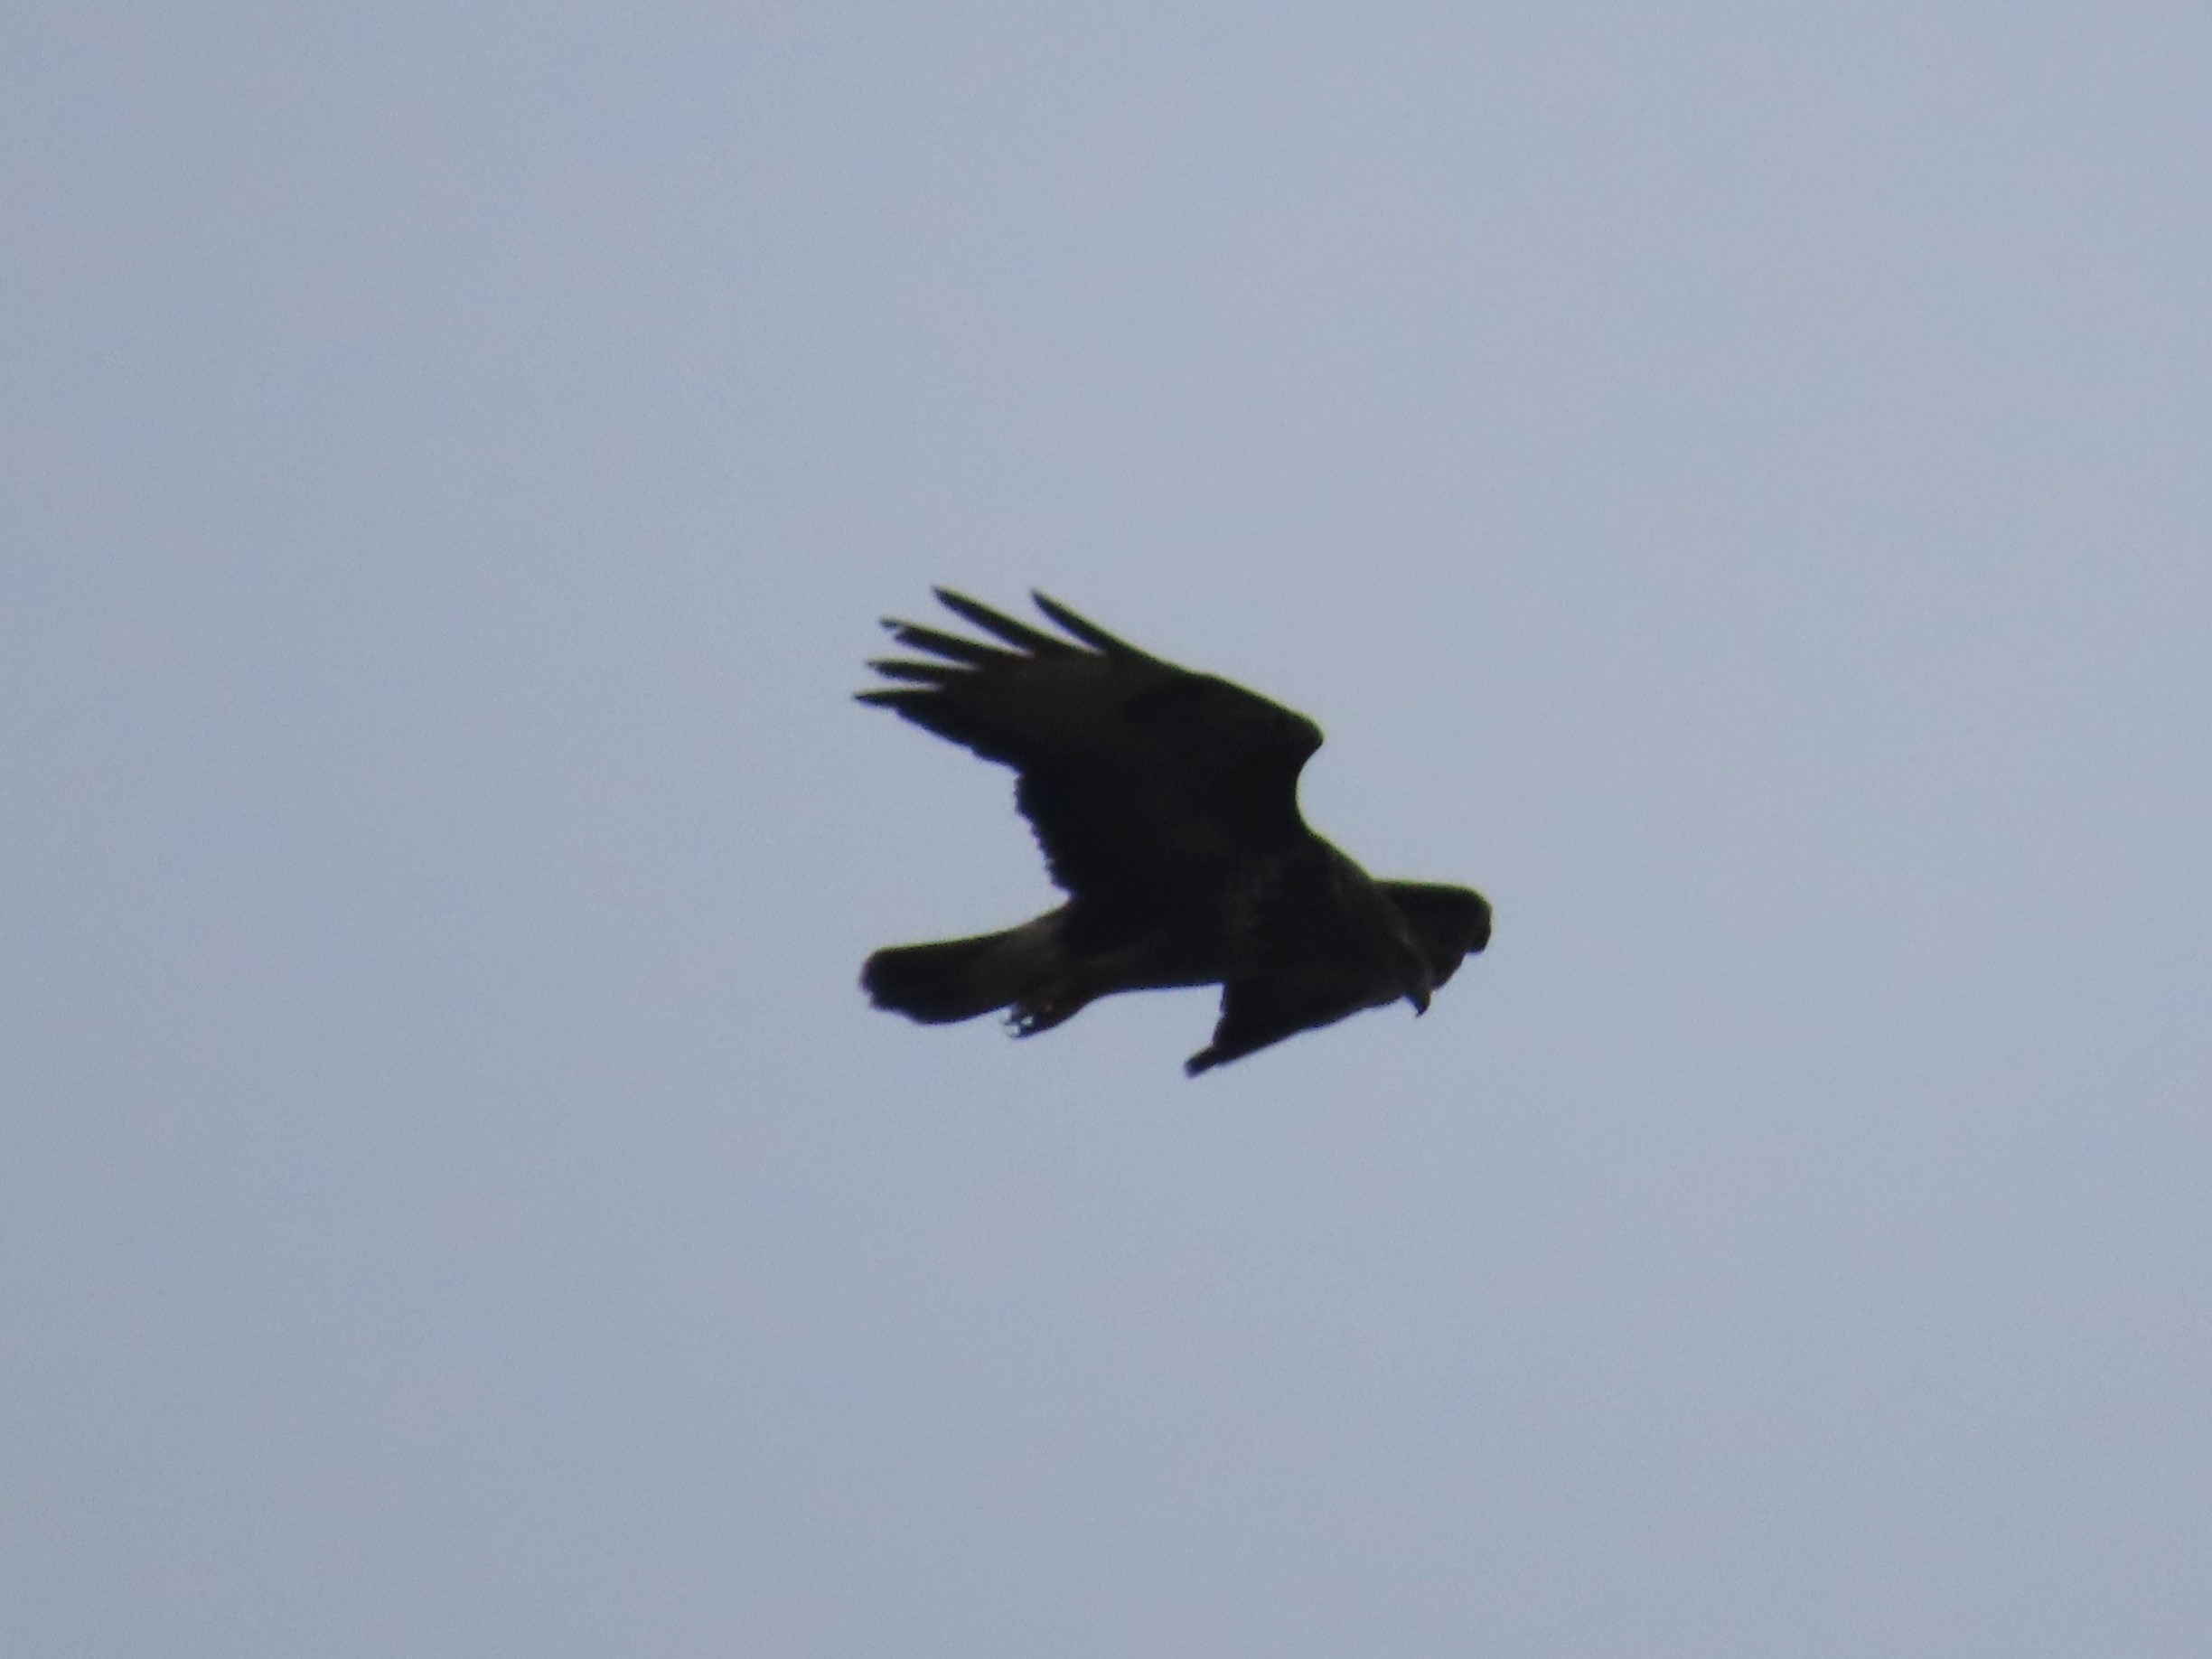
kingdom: Animalia
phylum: Chordata
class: Aves
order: Accipitriformes
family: Accipitridae
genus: Buteo
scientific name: Buteo buteo
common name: Musvåge
